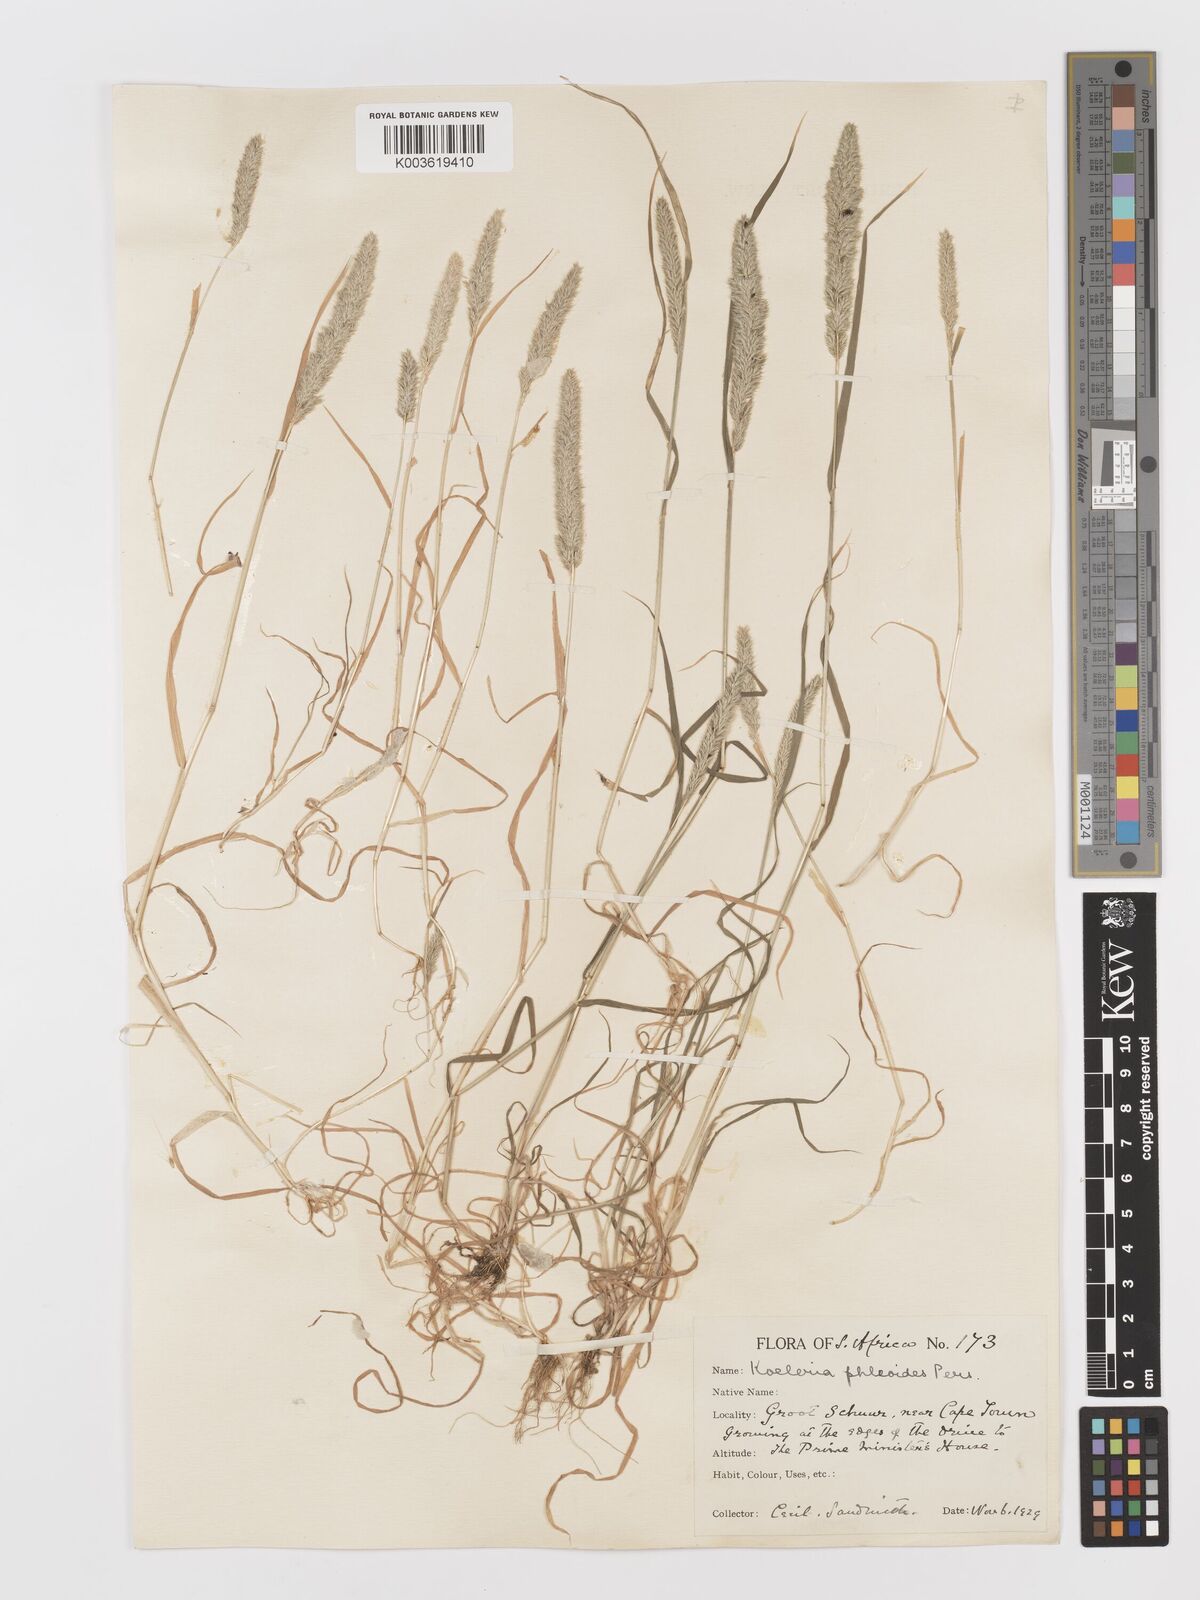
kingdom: Plantae
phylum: Tracheophyta
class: Liliopsida
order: Poales
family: Poaceae
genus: Rostraria
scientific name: Rostraria cristata
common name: Mediterranean hair-grass
